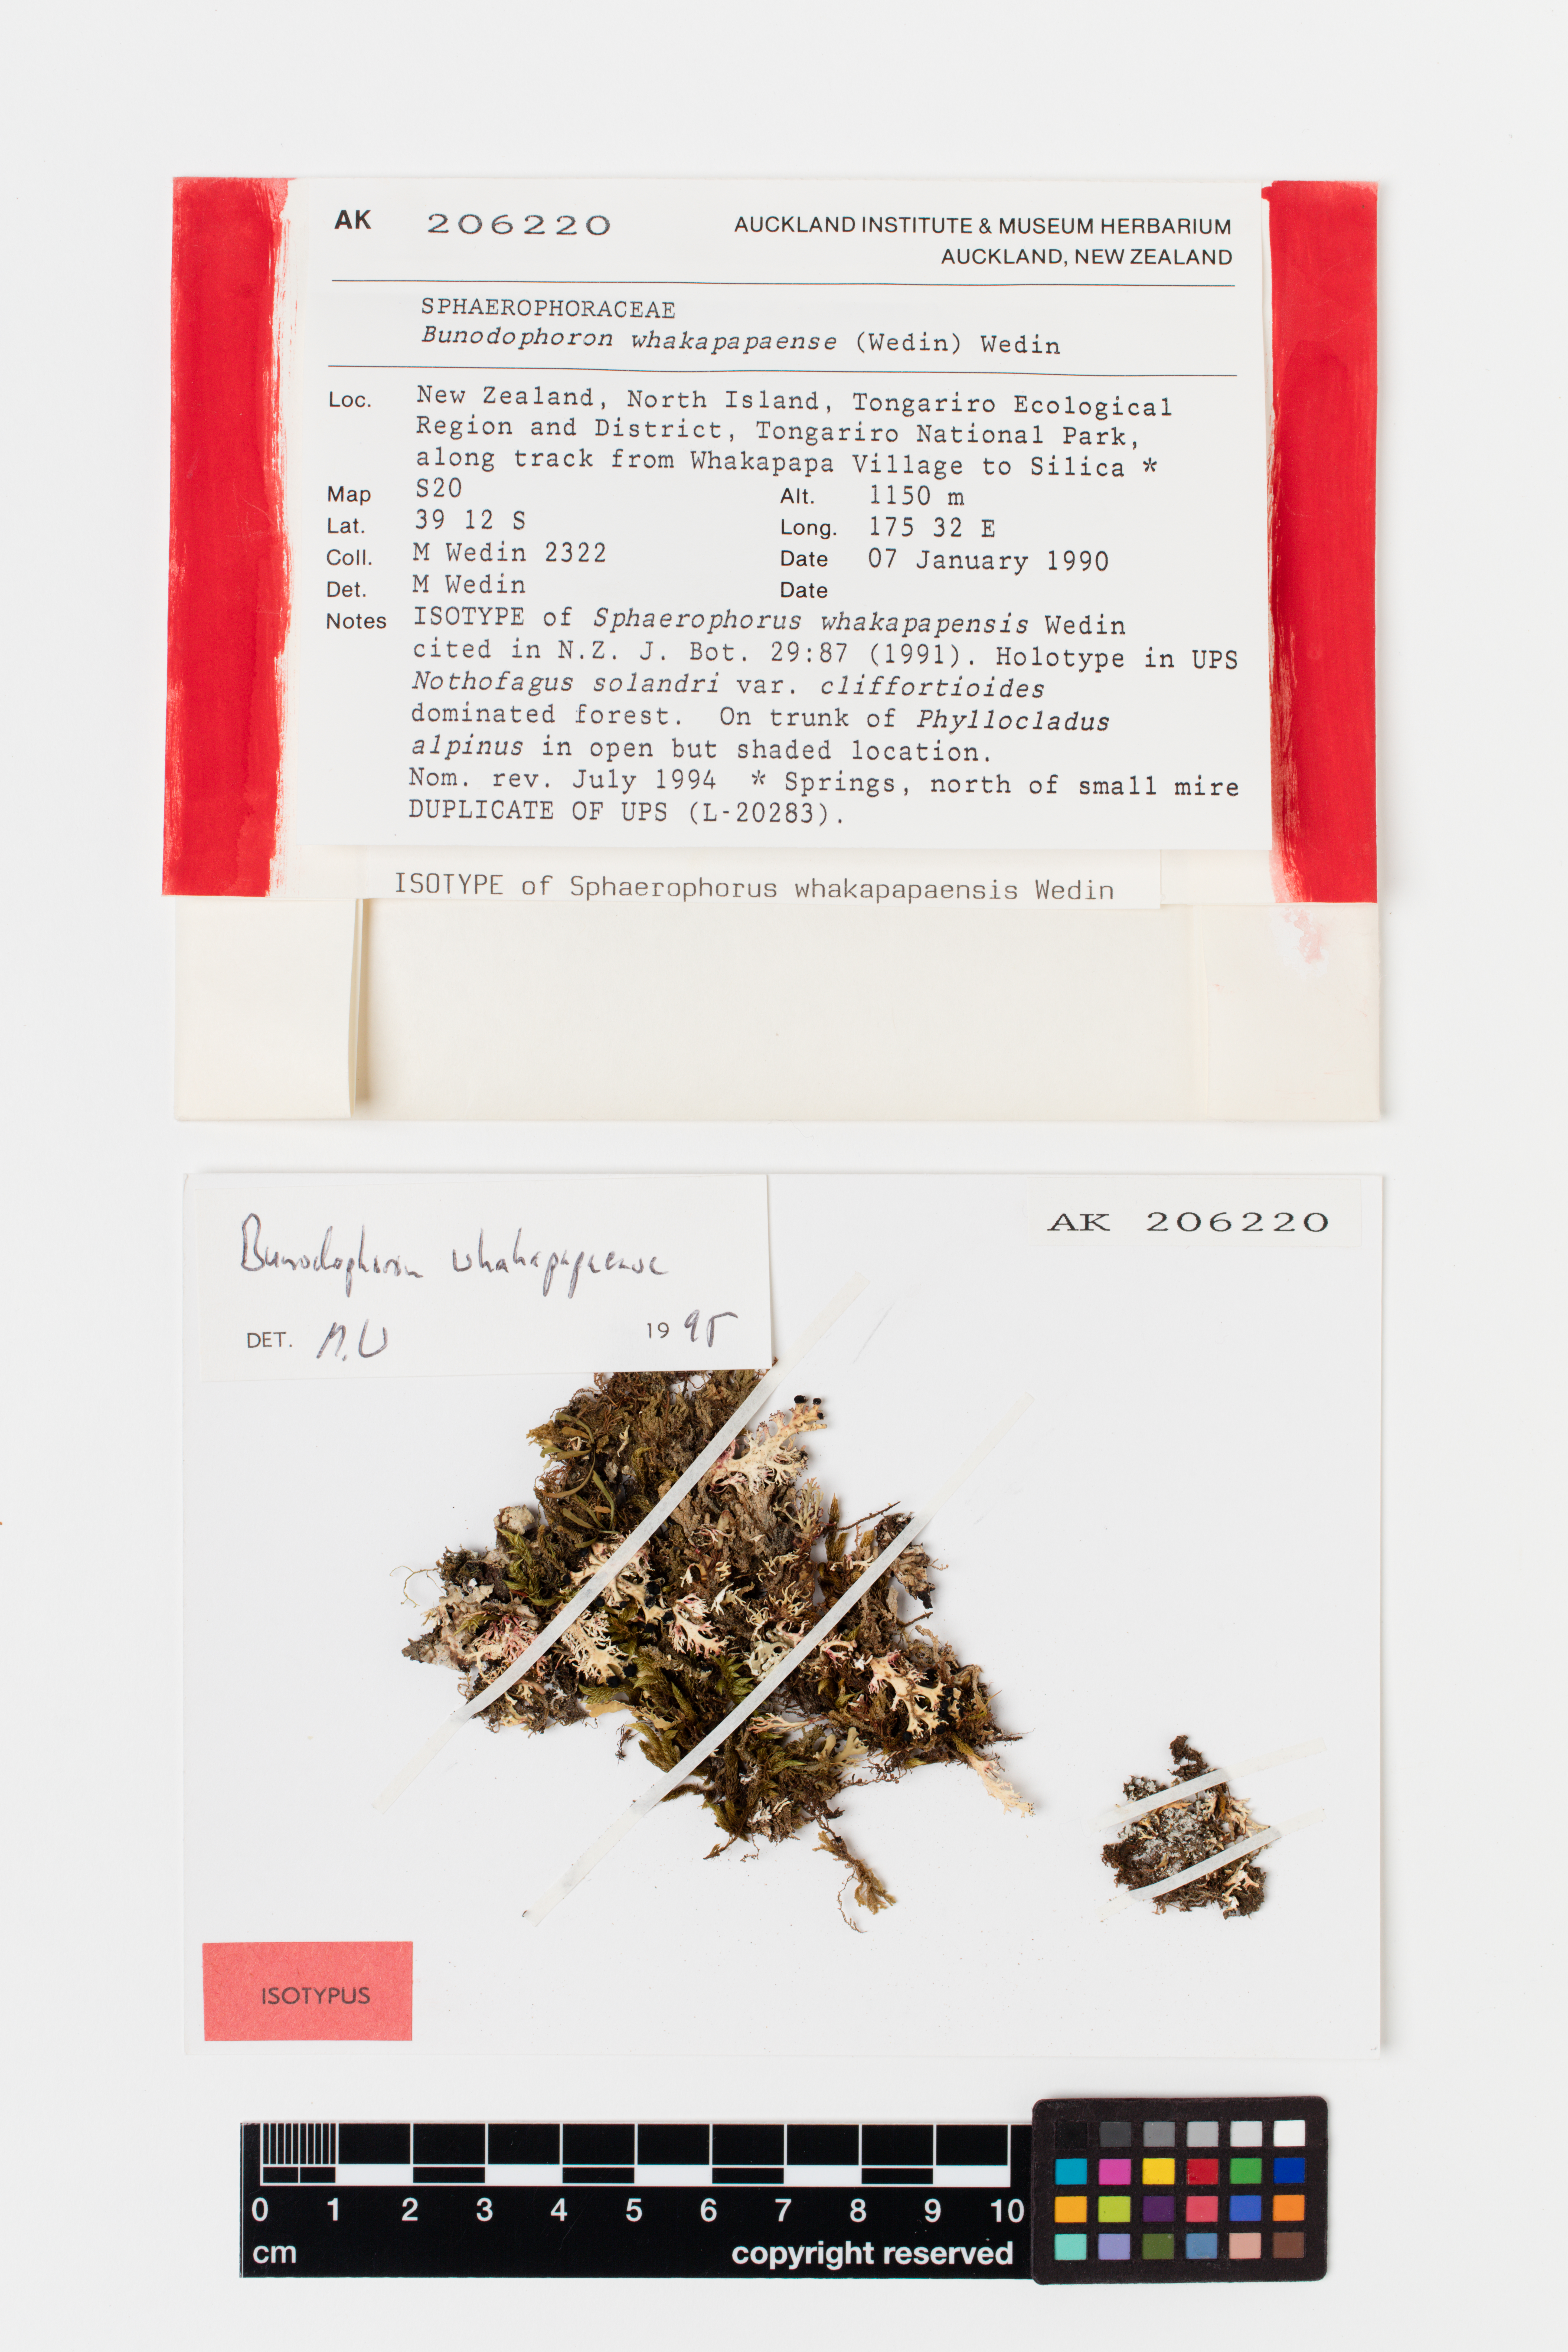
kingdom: Fungi
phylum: Ascomycota
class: Lecanoromycetes
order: Lecanorales
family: Sphaerophoraceae
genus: Bunodophoron
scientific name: Bunodophoron whakapapaensi
